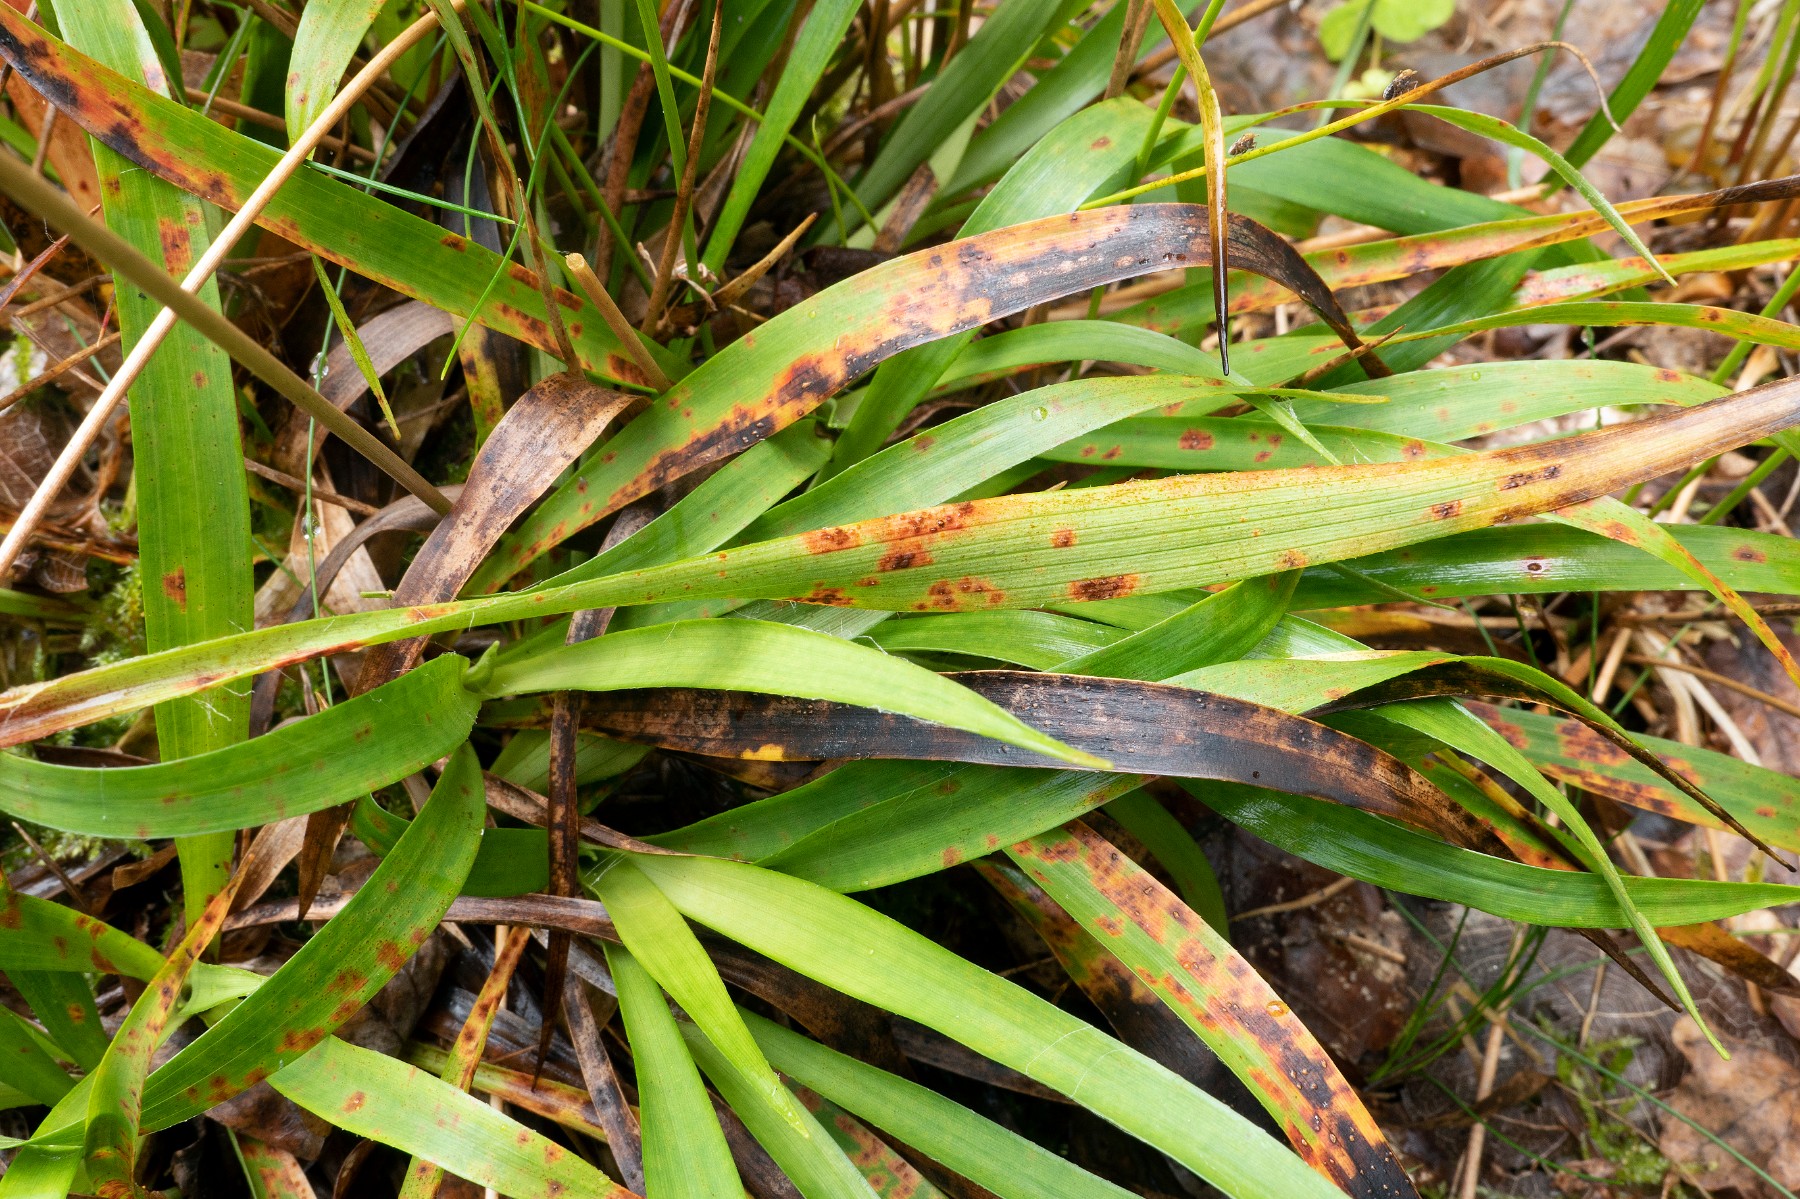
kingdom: Fungi
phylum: Basidiomycota
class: Pucciniomycetes
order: Pucciniales
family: Pucciniaceae
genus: Puccinia
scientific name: Puccinia luzulae
